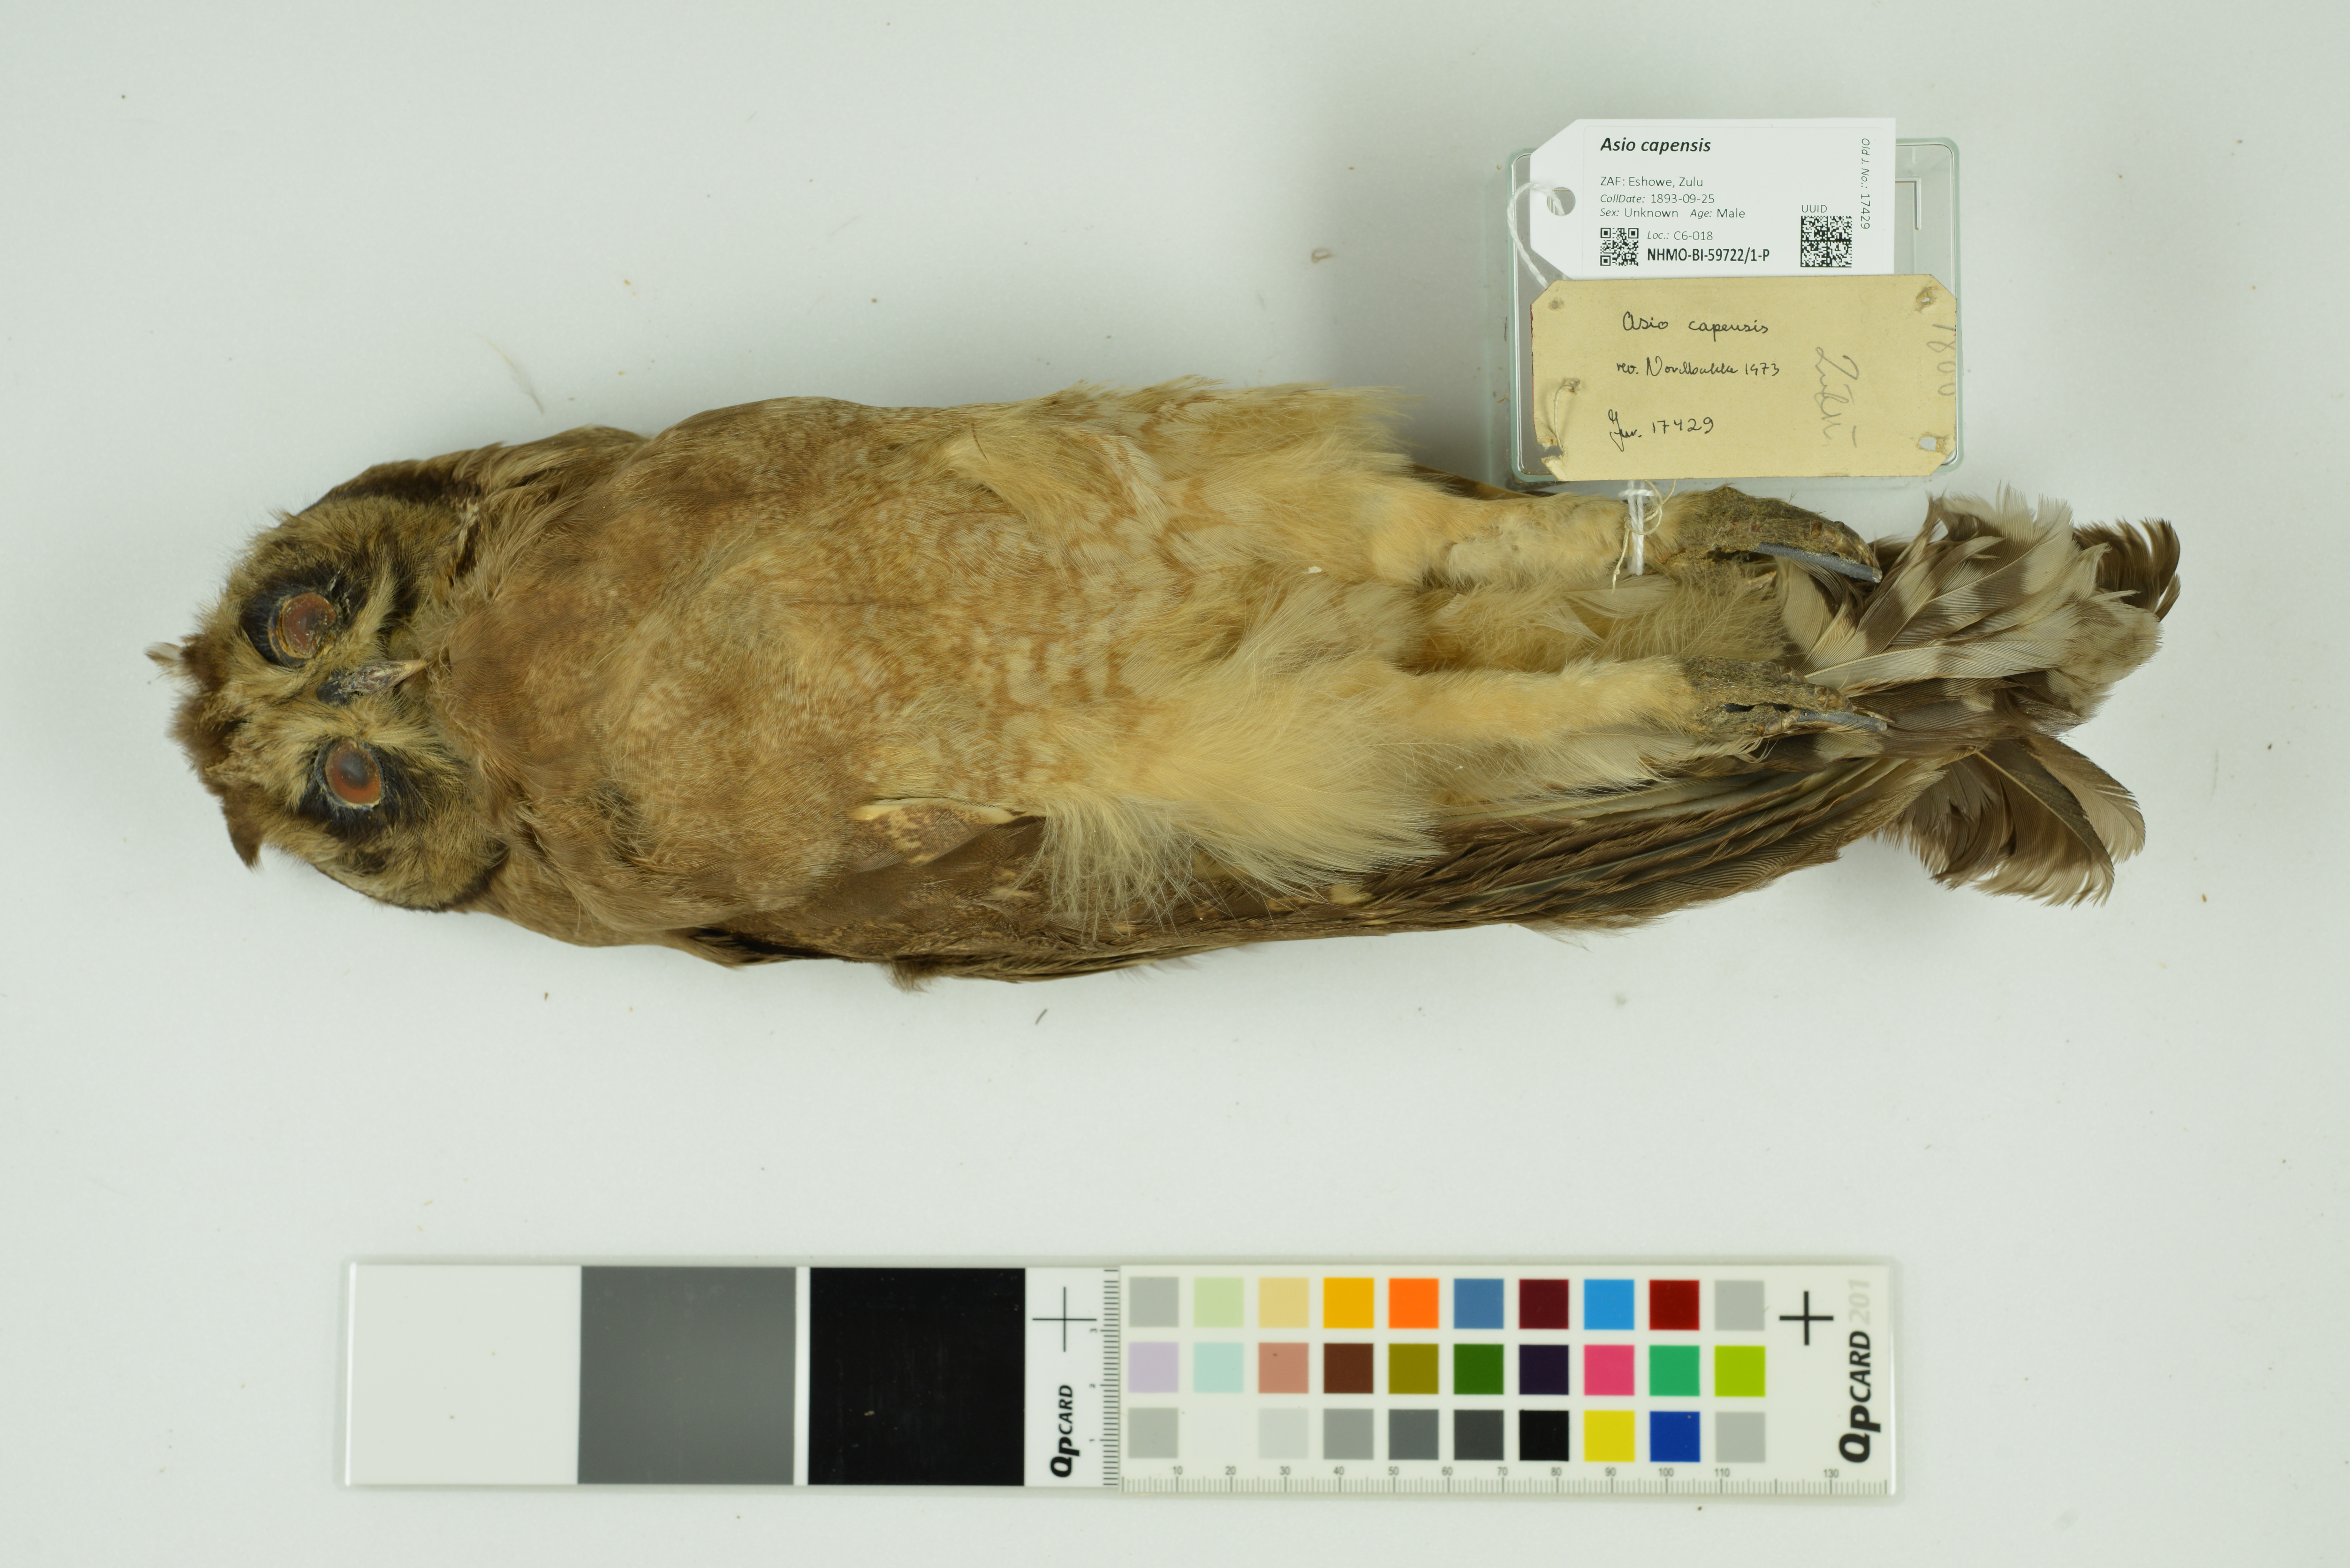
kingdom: Animalia
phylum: Chordata
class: Aves
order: Strigiformes
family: Strigidae
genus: Asio
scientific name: Asio capensis
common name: Marsh owl
